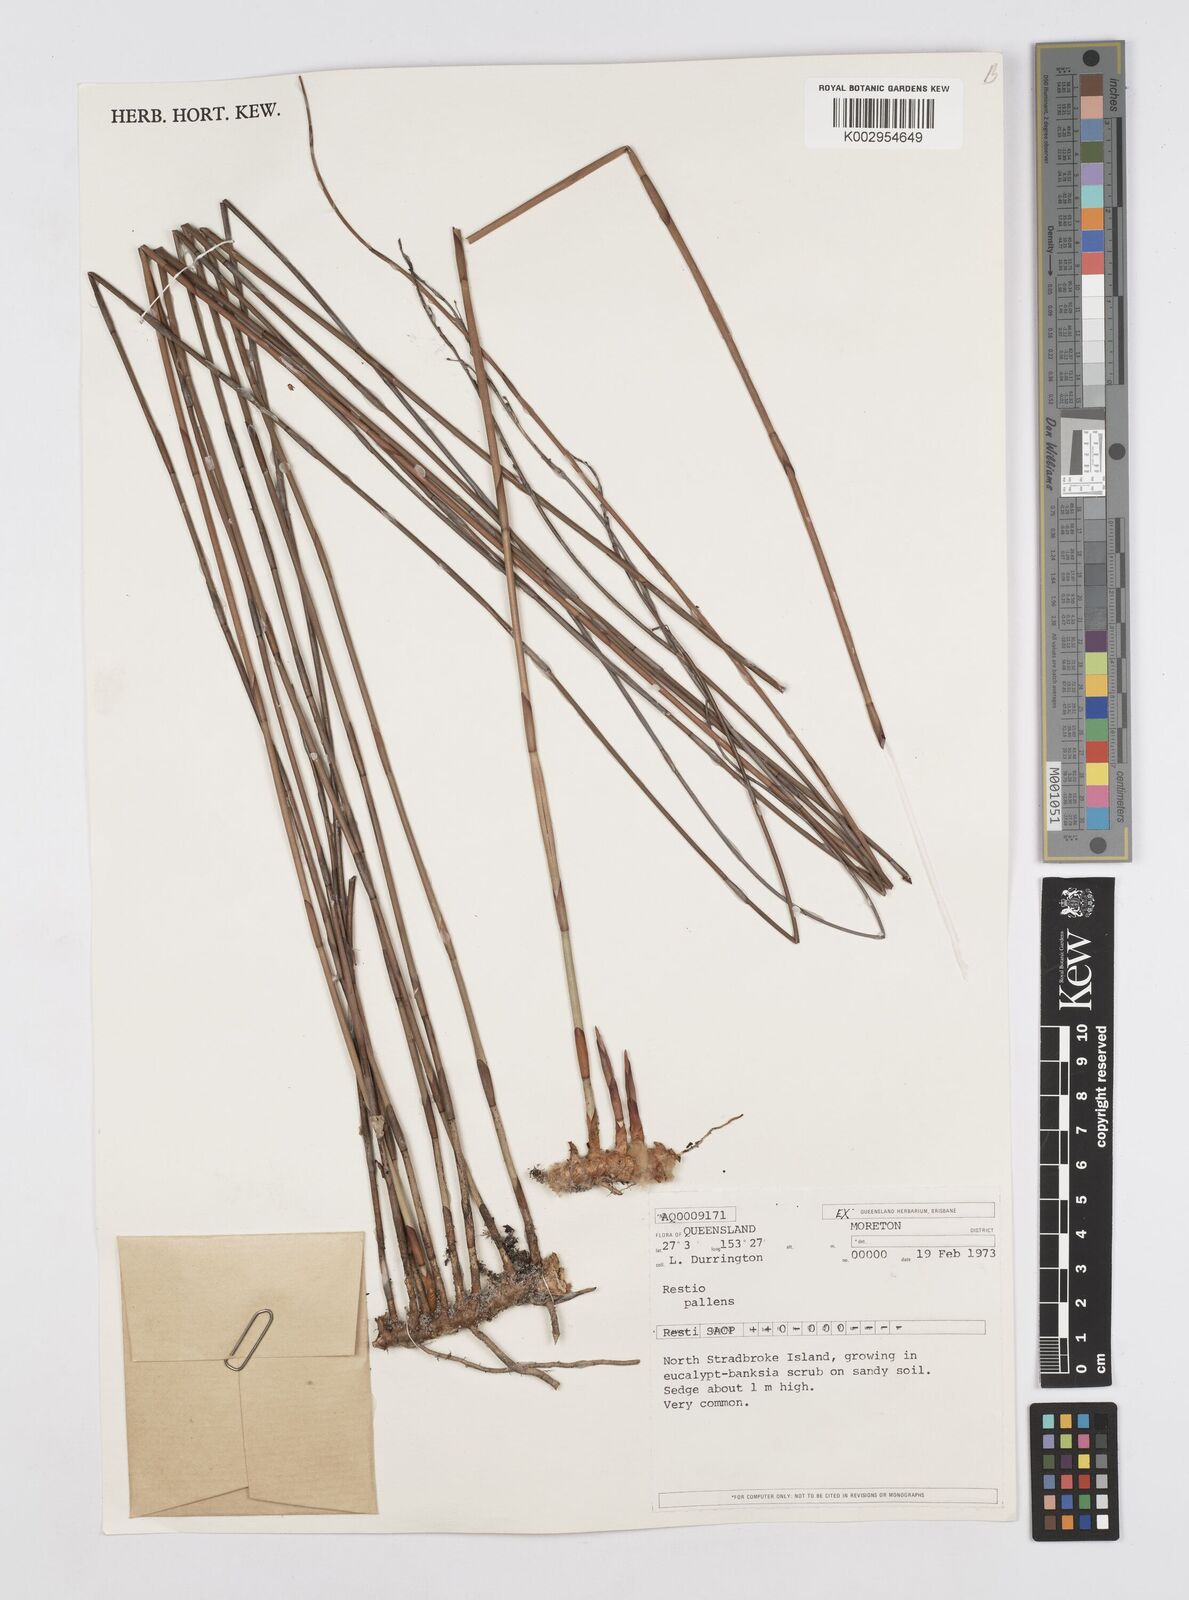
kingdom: Plantae
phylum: Tracheophyta
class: Liliopsida
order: Poales
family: Restionaceae
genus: Baloskion
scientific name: Baloskion pallens
